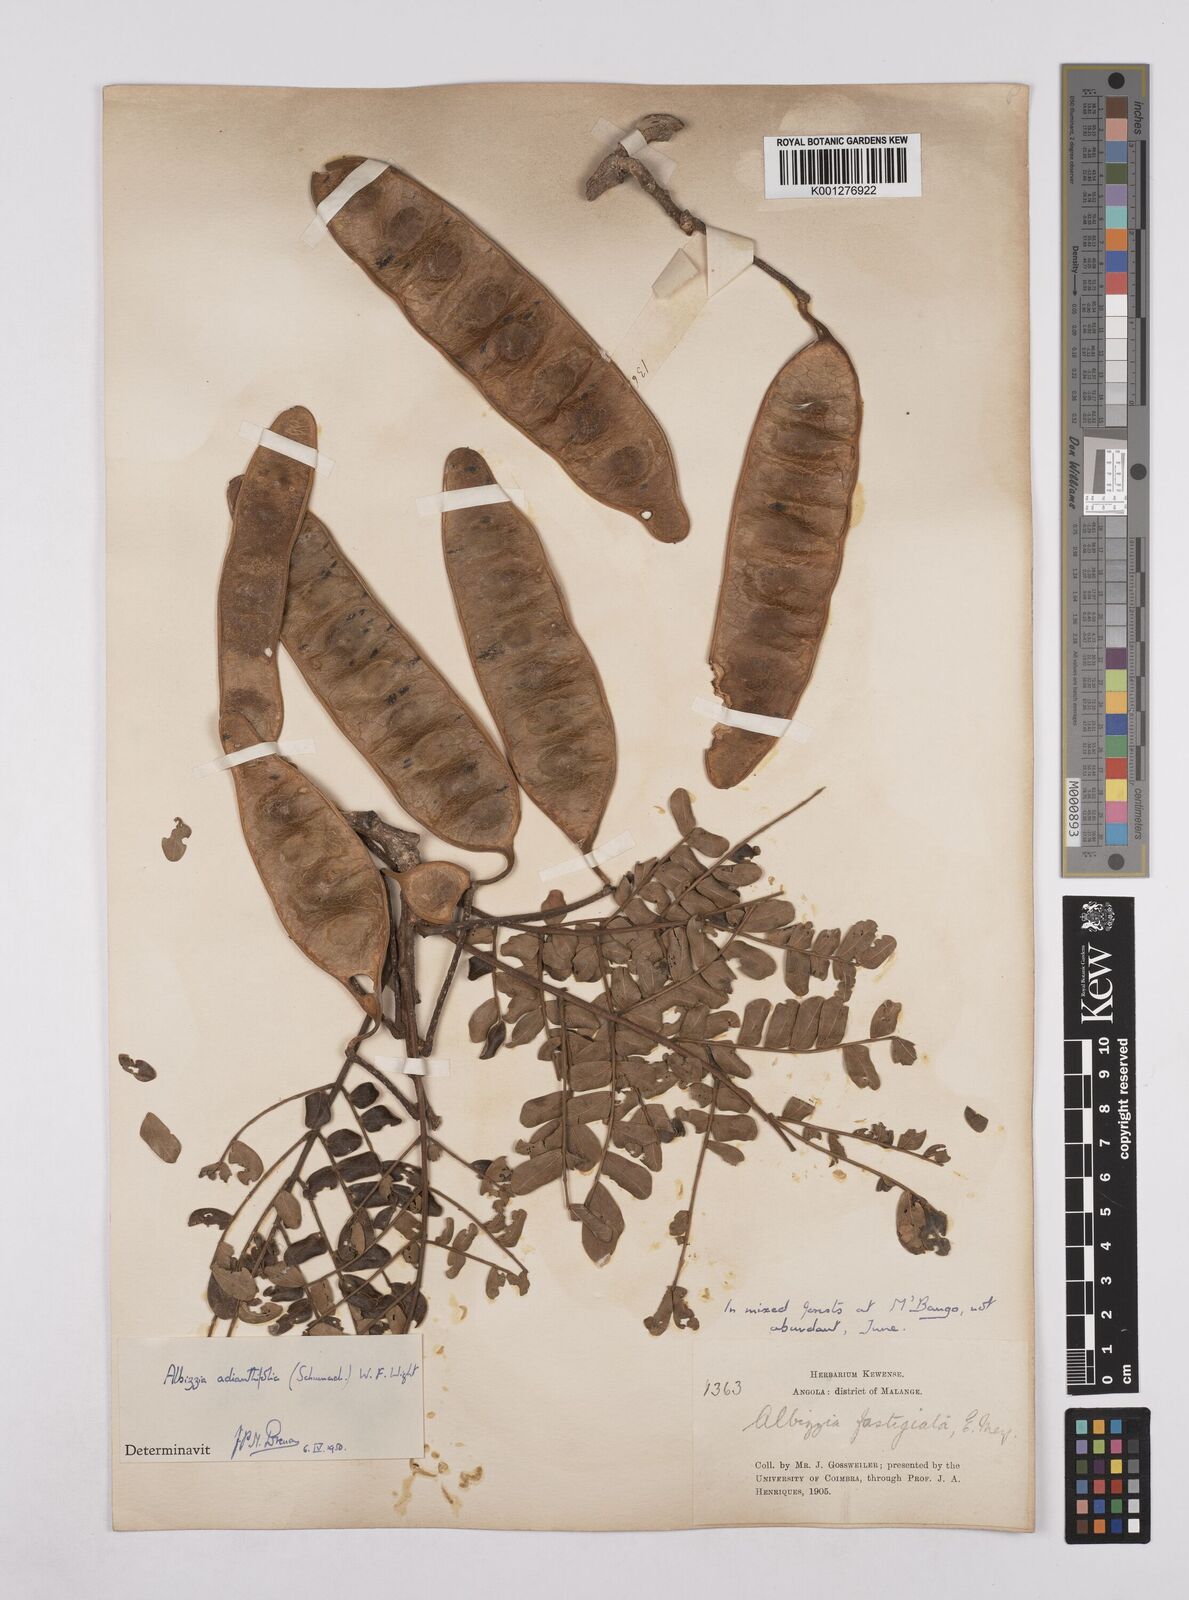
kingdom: Plantae
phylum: Tracheophyta
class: Magnoliopsida
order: Fabales
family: Fabaceae
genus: Albizia
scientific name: Albizia adianthifolia
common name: West african albizia
